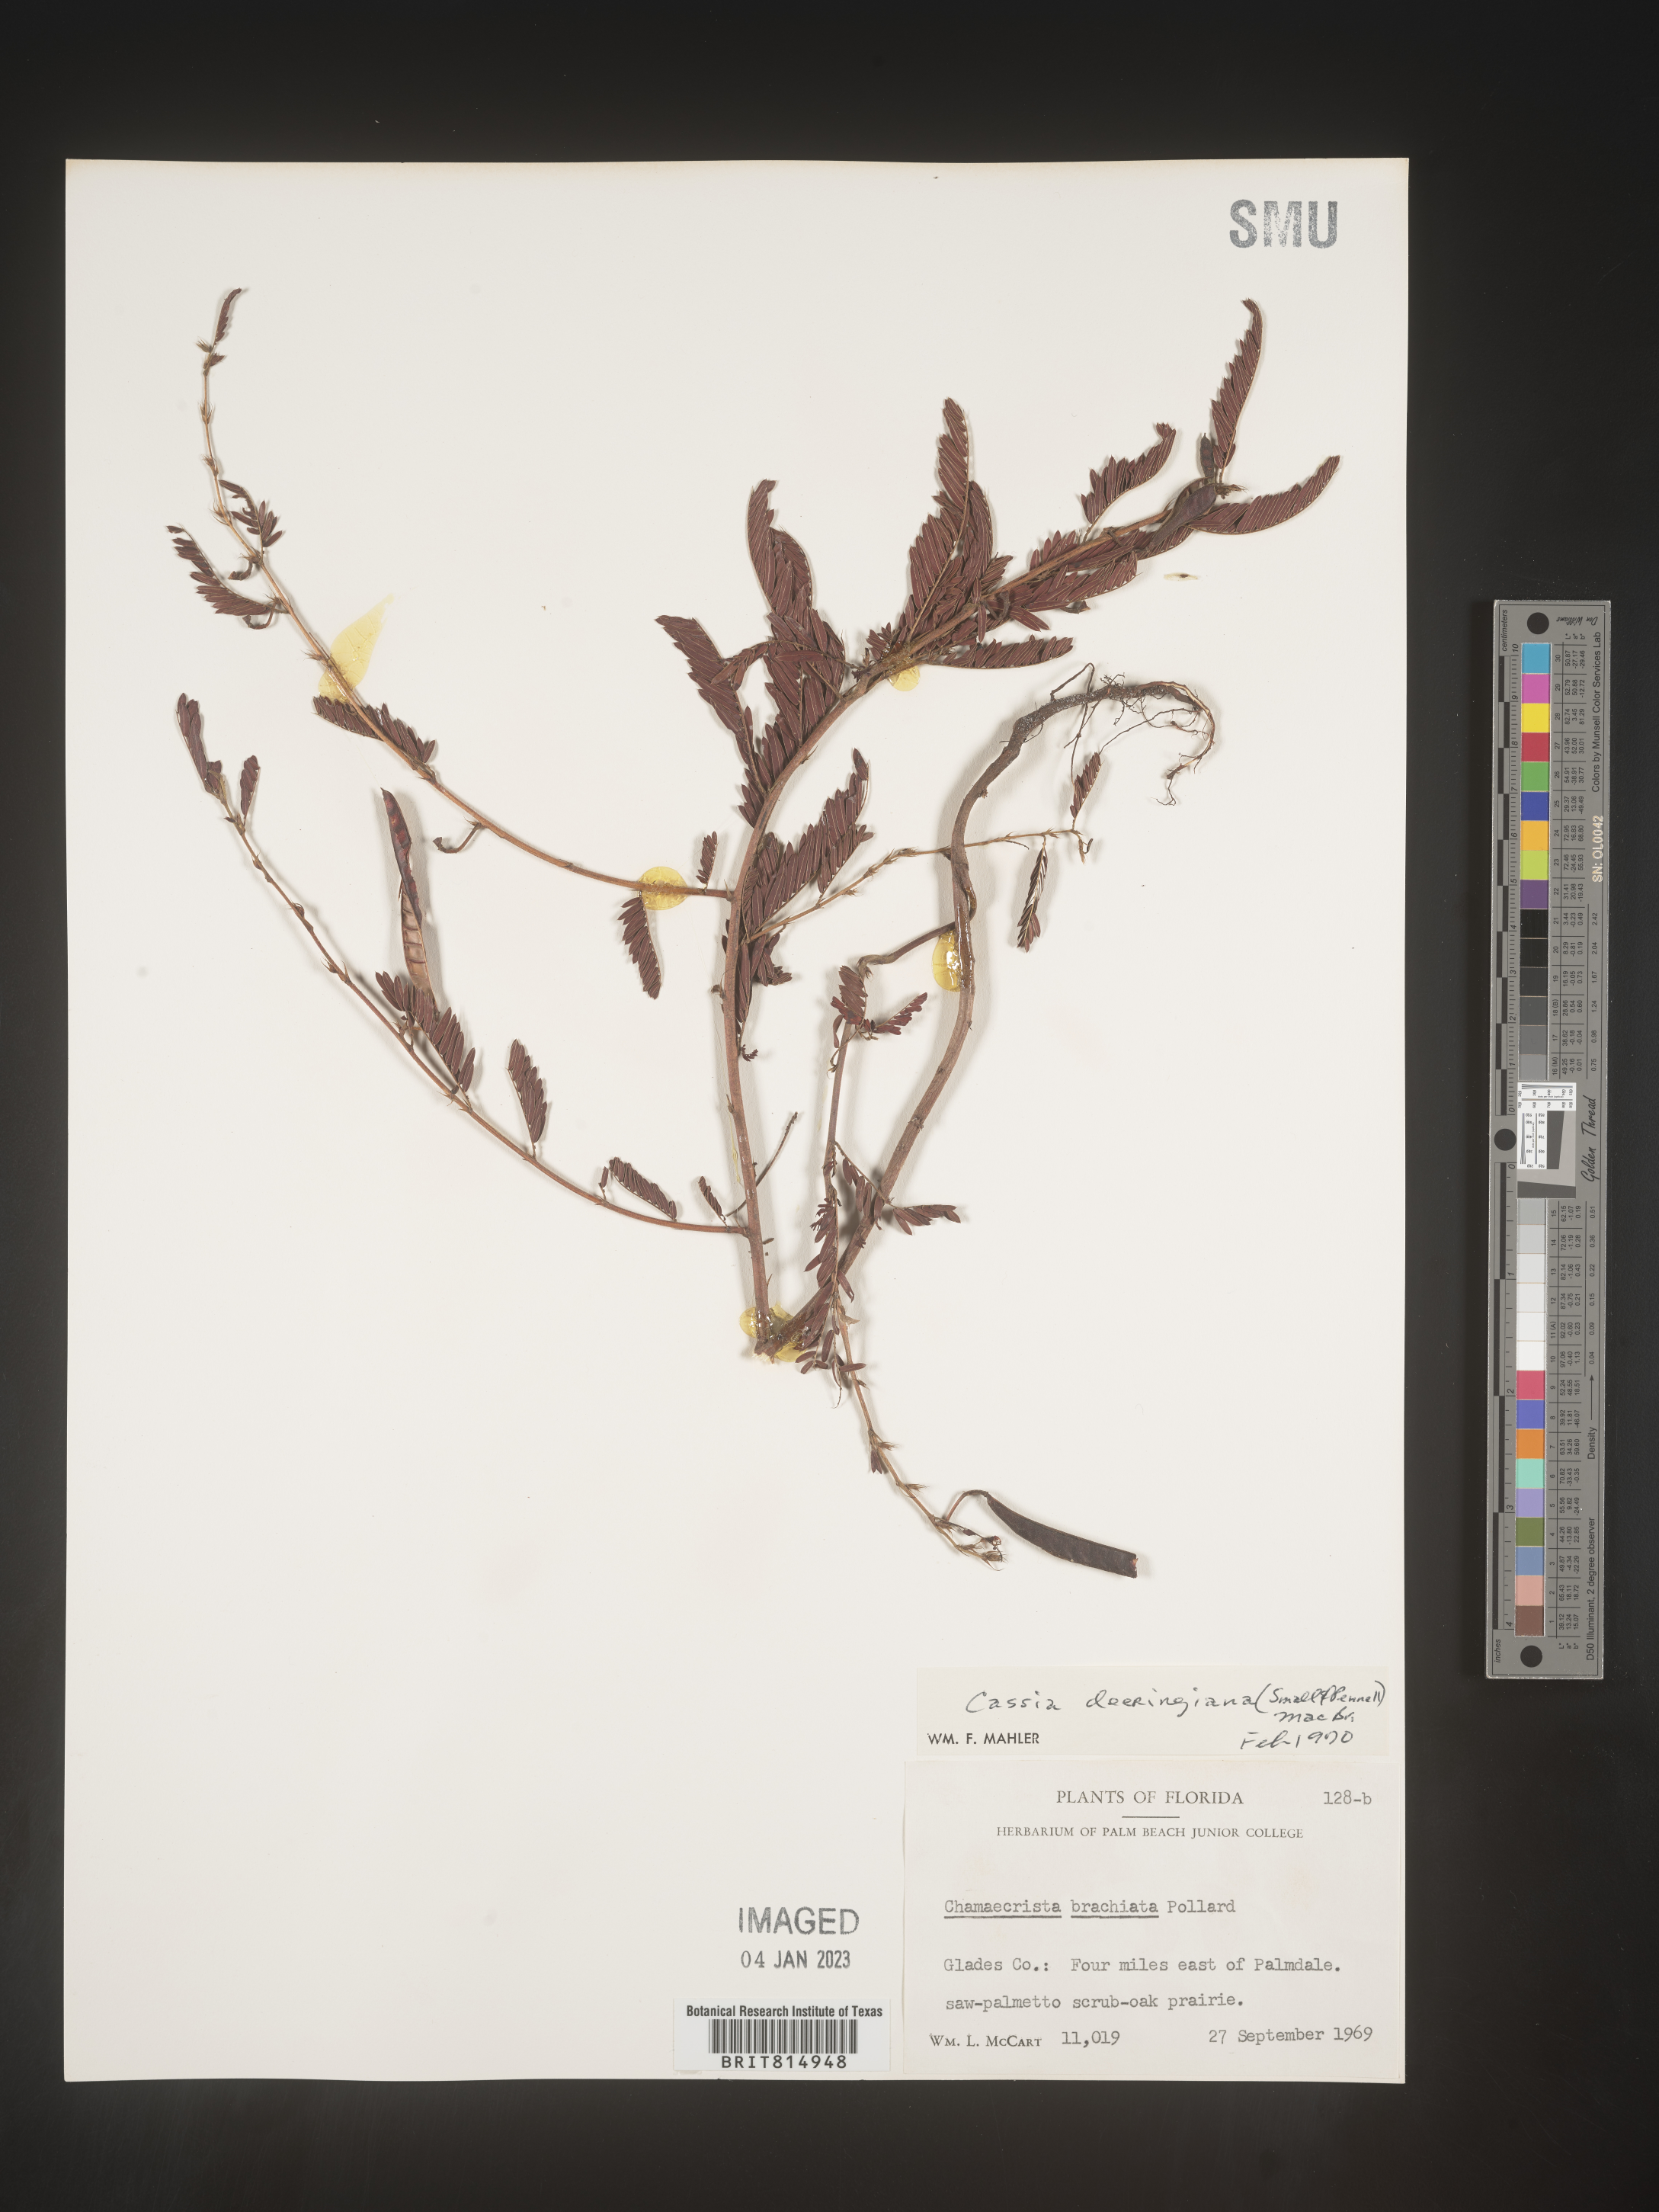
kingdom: Plantae
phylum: Tracheophyta
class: Magnoliopsida
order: Fabales
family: Fabaceae
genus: Cassia
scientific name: Cassia
